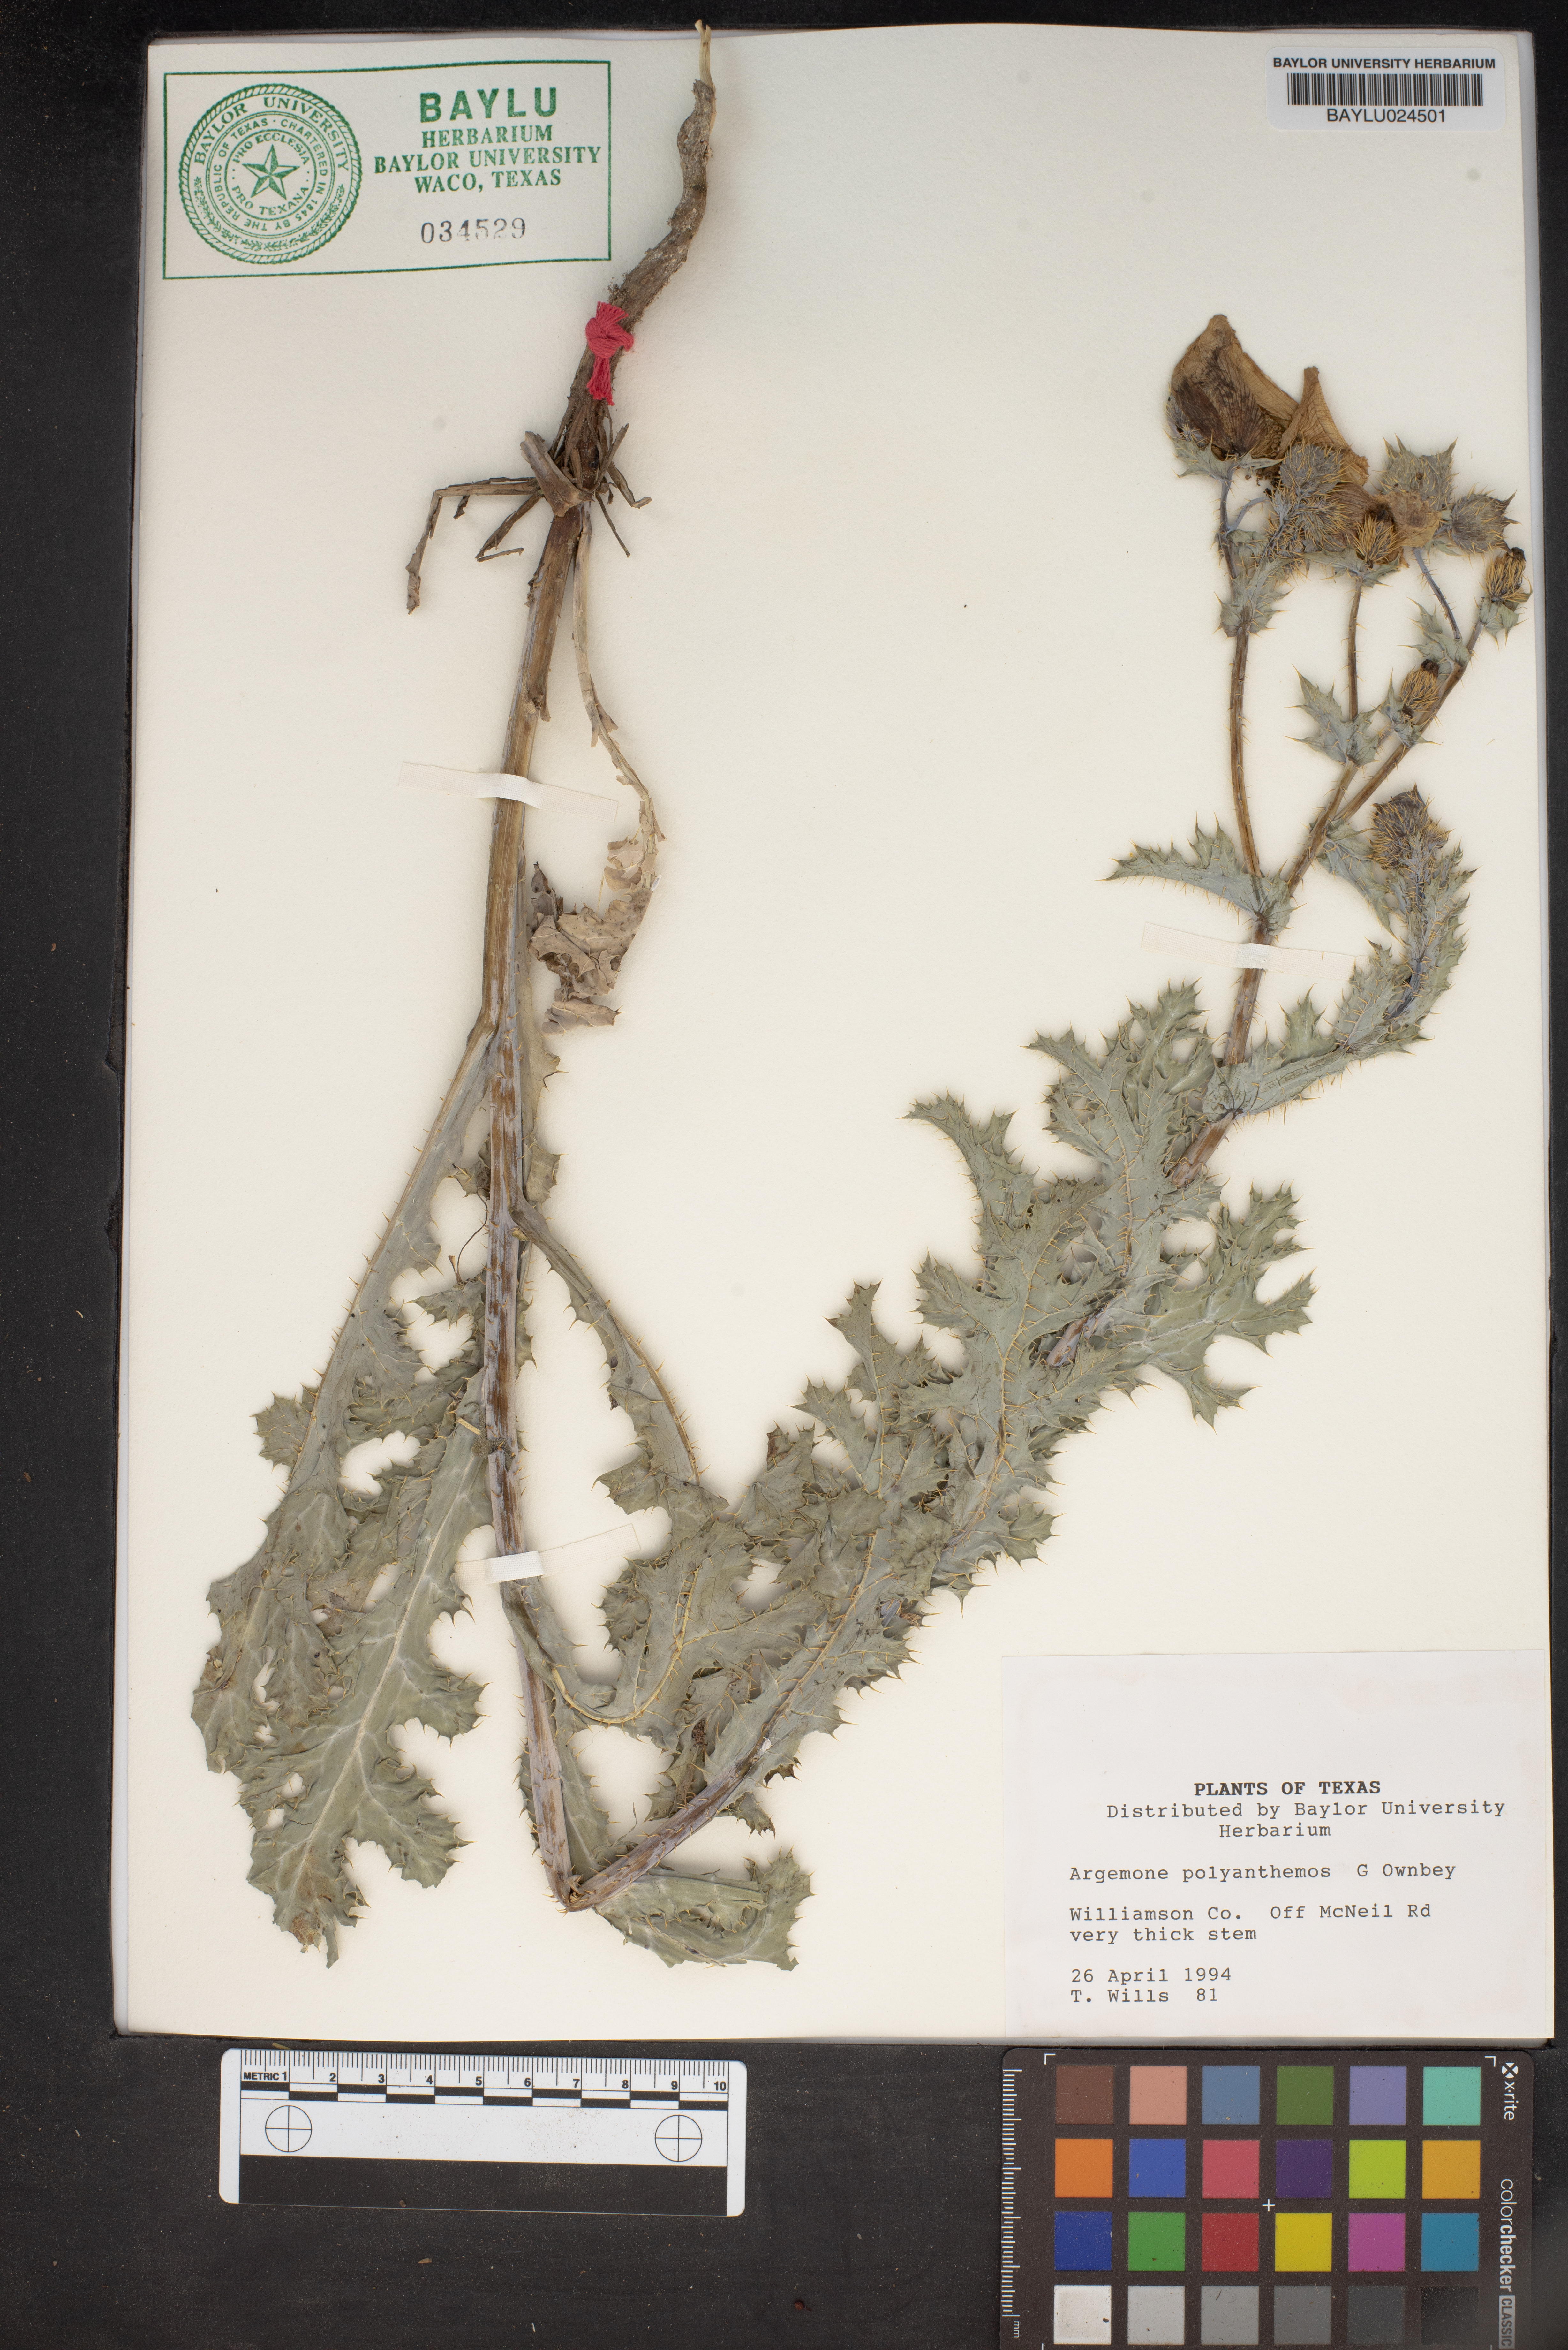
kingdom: Plantae
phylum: Tracheophyta
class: Magnoliopsida
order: Ranunculales
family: Papaveraceae
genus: Argemone
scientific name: Argemone polyanthemos
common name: Plains prickly-poppy
